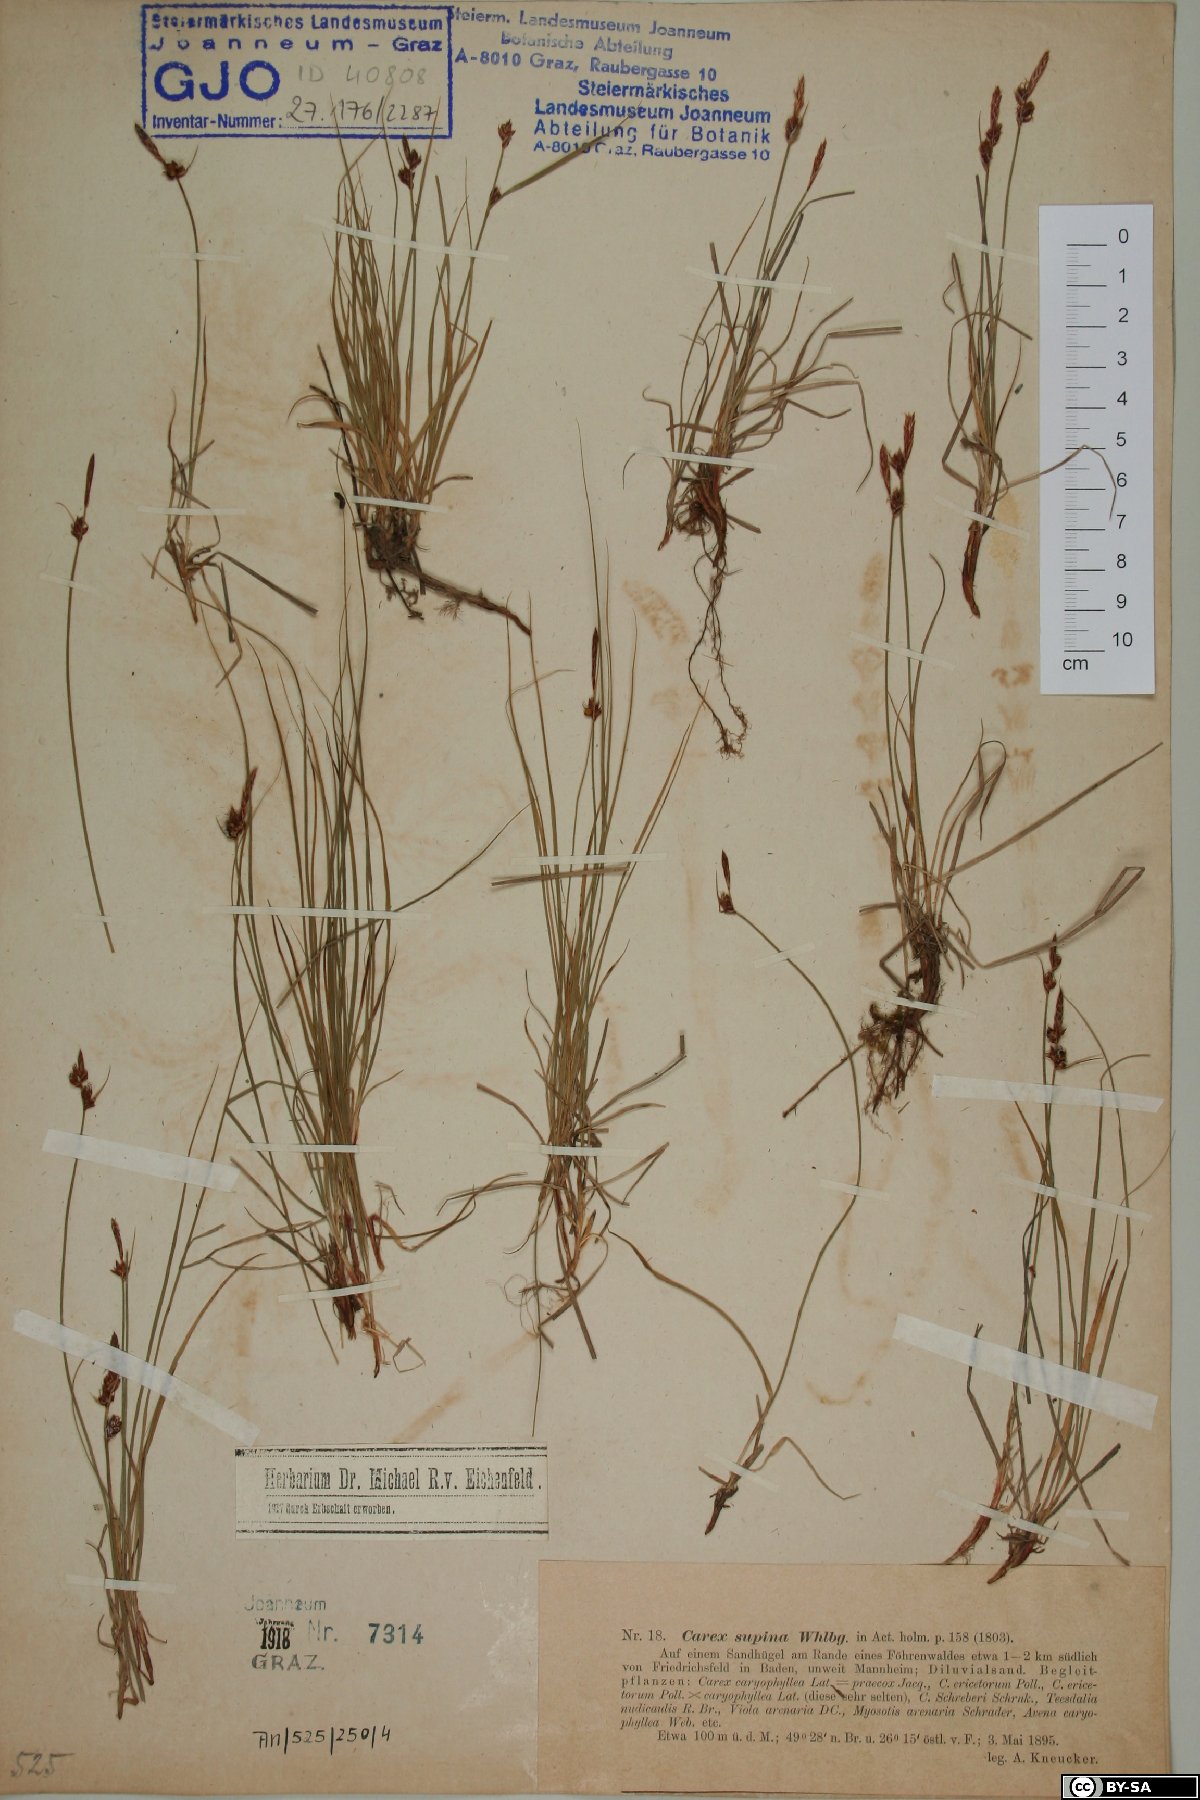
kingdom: Fungi
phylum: Basidiomycota
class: Agaricomycetes
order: Agaricales
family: Lycoperdaceae
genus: Lycoperdon
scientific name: Lycoperdon echinatum
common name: Hedgehog puffball
